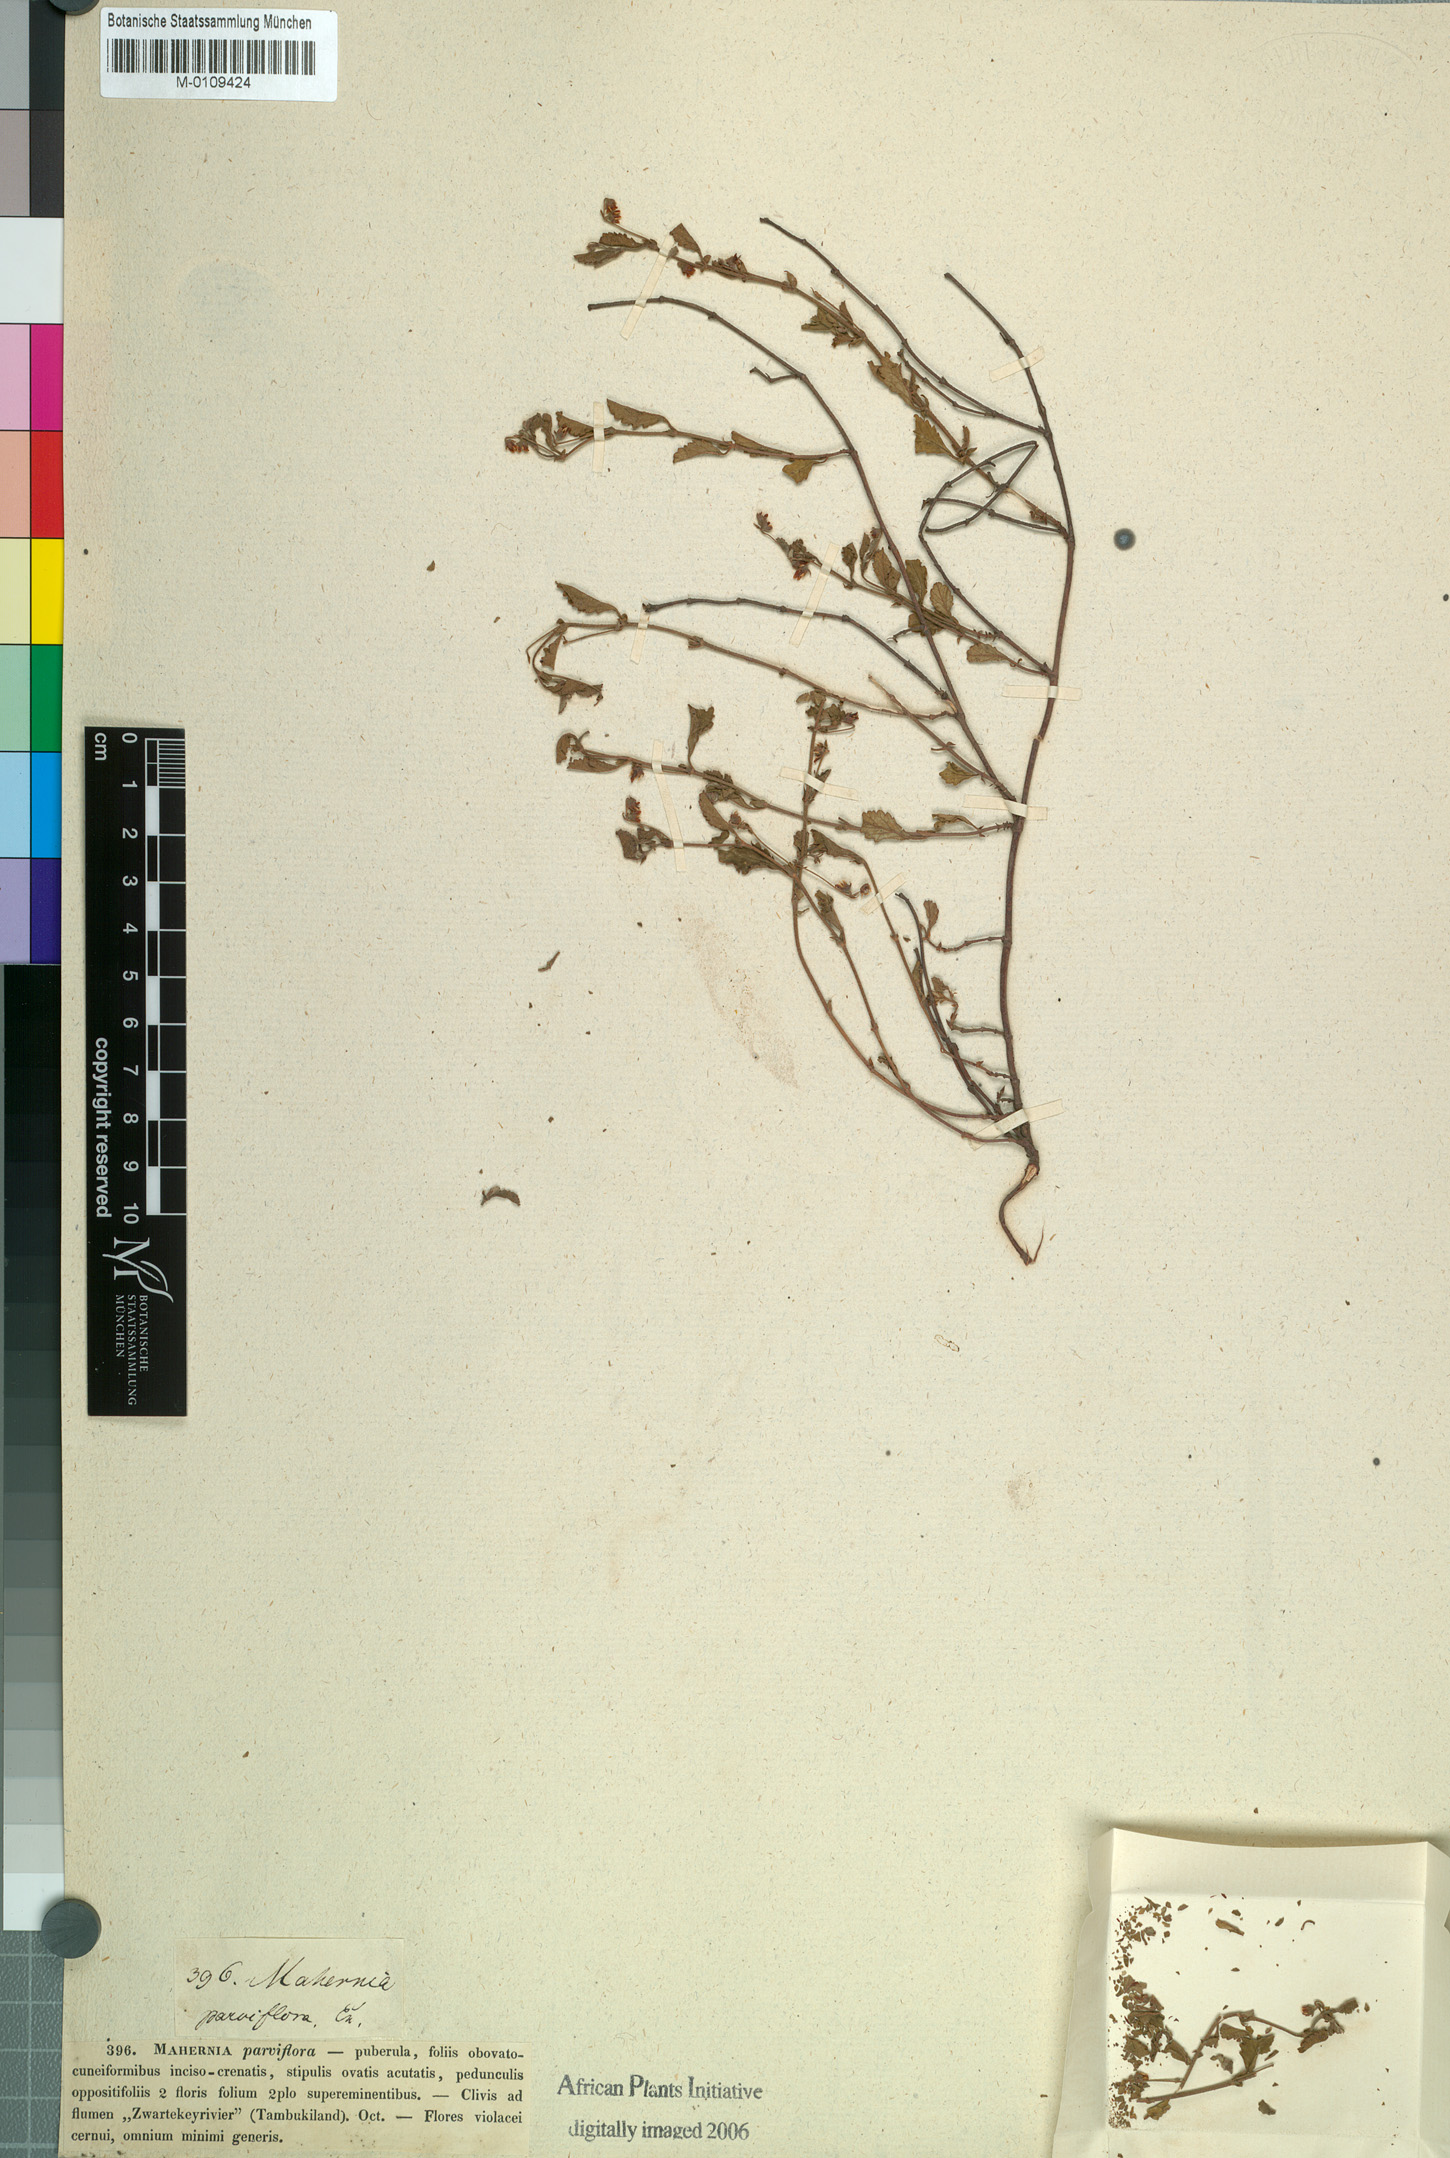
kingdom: Plantae
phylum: Tracheophyta
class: Magnoliopsida
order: Malvales
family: Malvaceae
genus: Hermannia
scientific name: Hermannia parviflora
